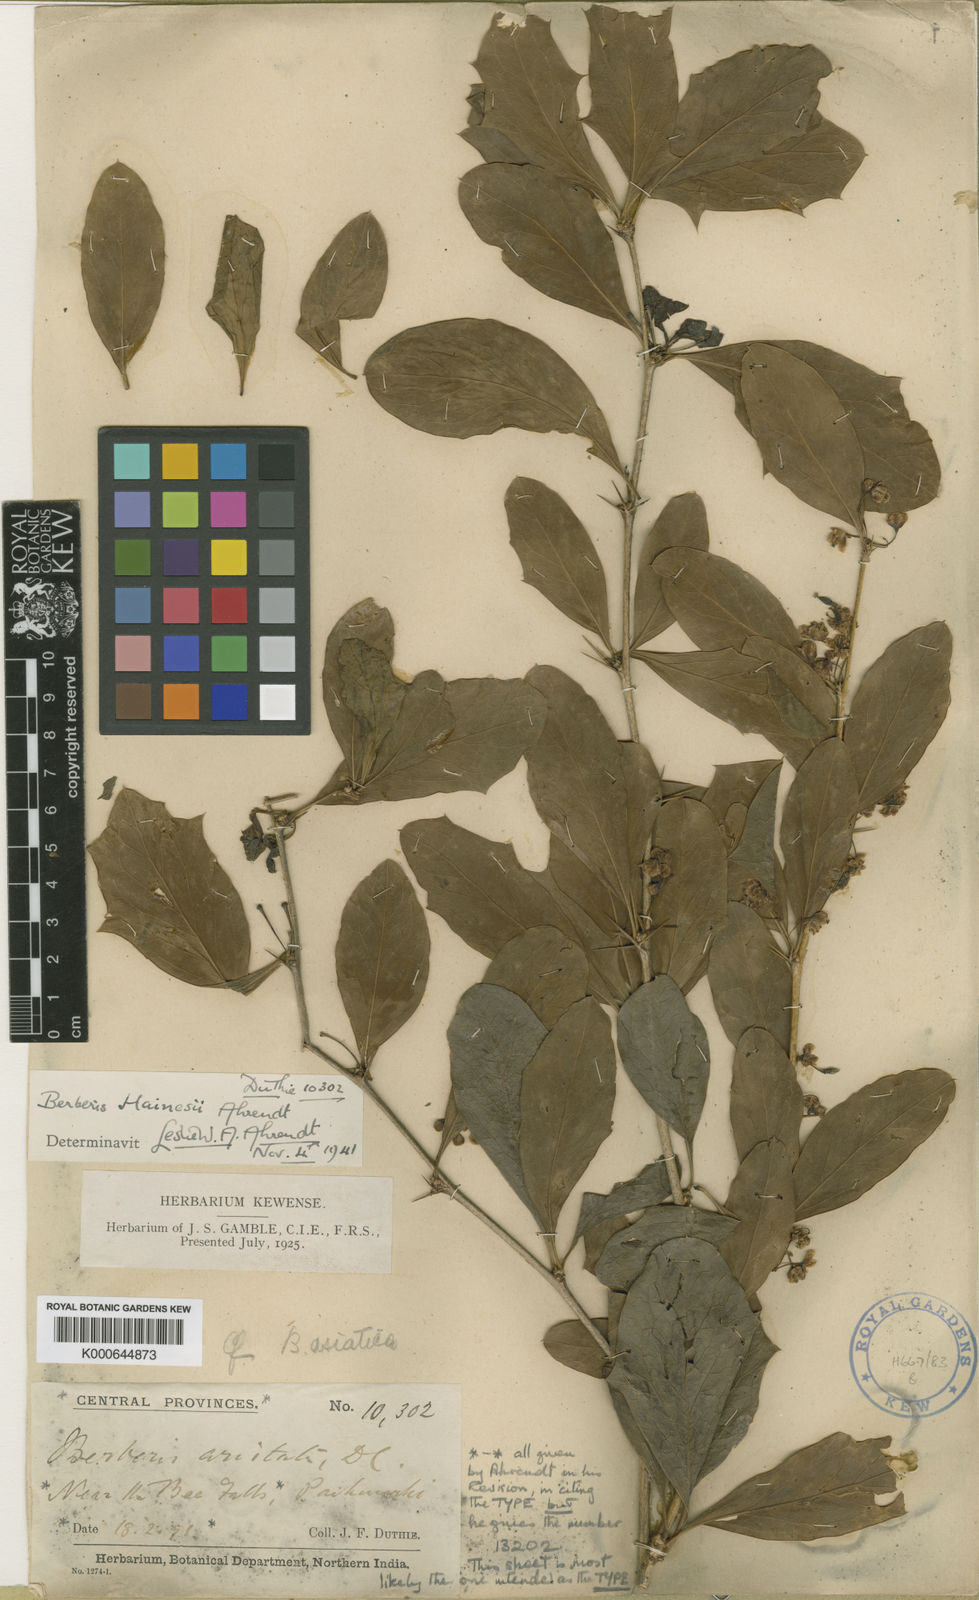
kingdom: Plantae
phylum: Tracheophyta
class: Magnoliopsida
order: Ranunculales
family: Berberidaceae
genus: Berberis
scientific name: Berberis hainesii
